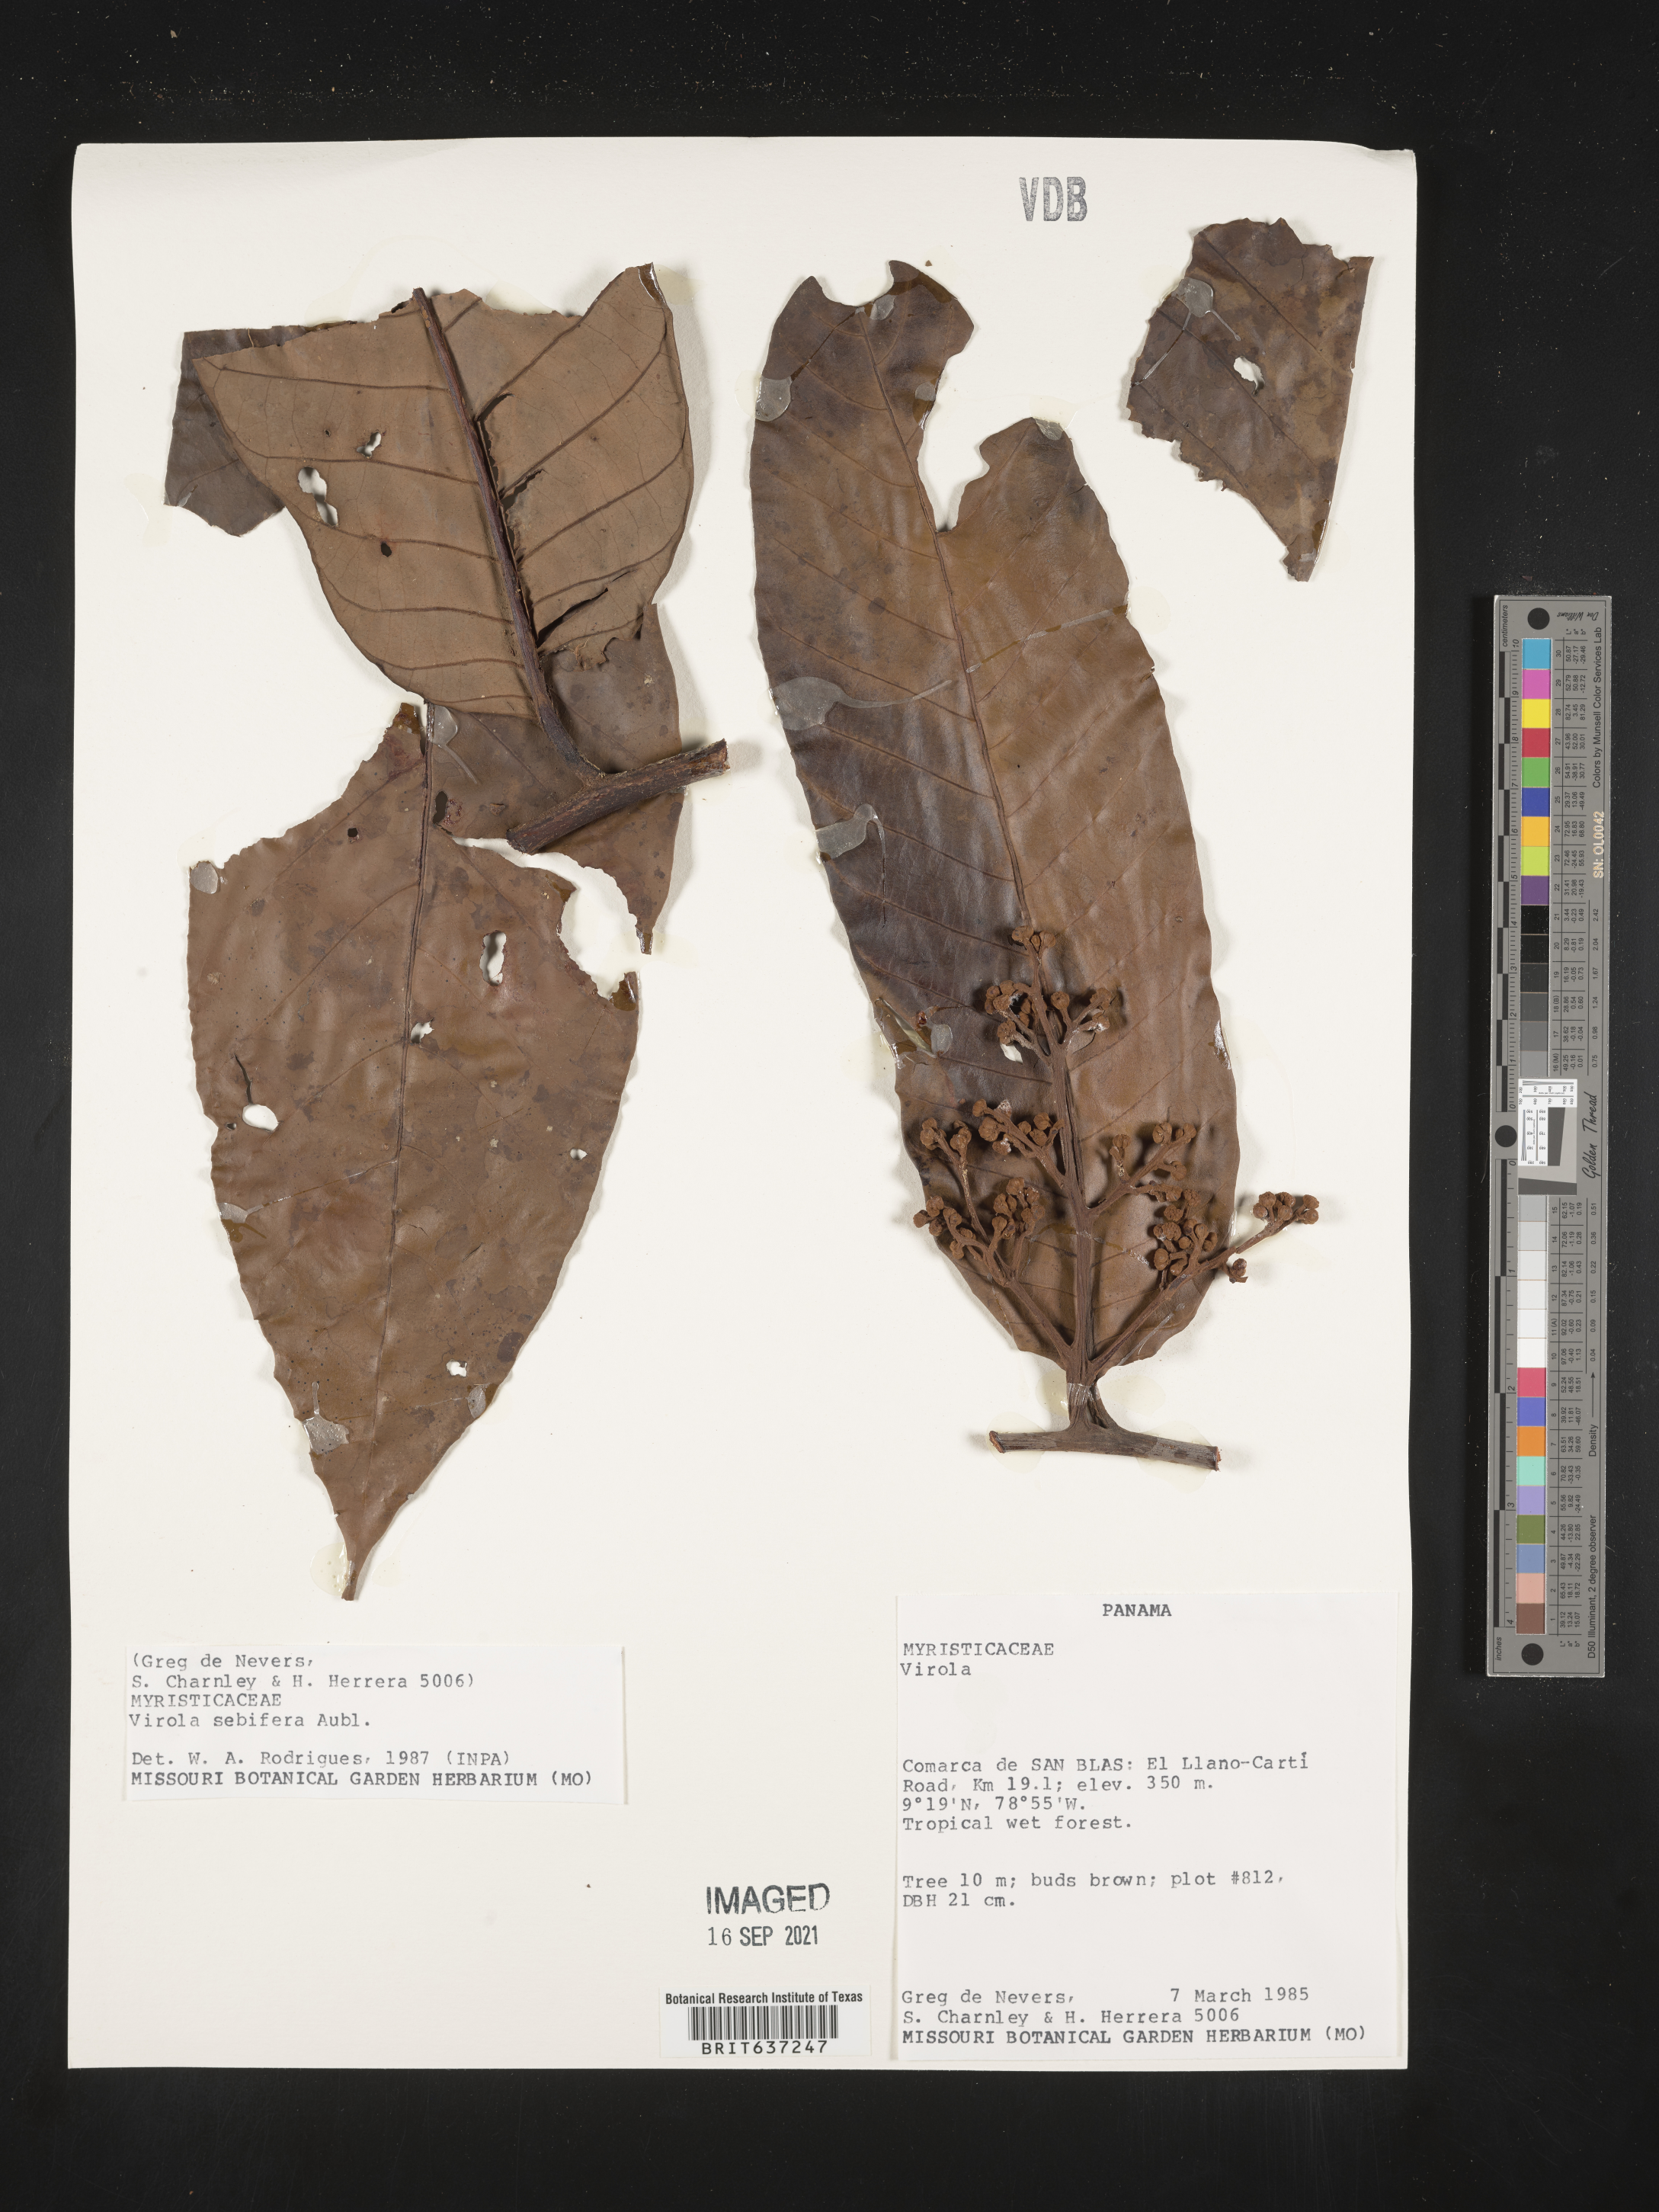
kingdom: Plantae
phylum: Tracheophyta
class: Magnoliopsida
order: Magnoliales
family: Myristicaceae
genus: Virola
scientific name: Virola
